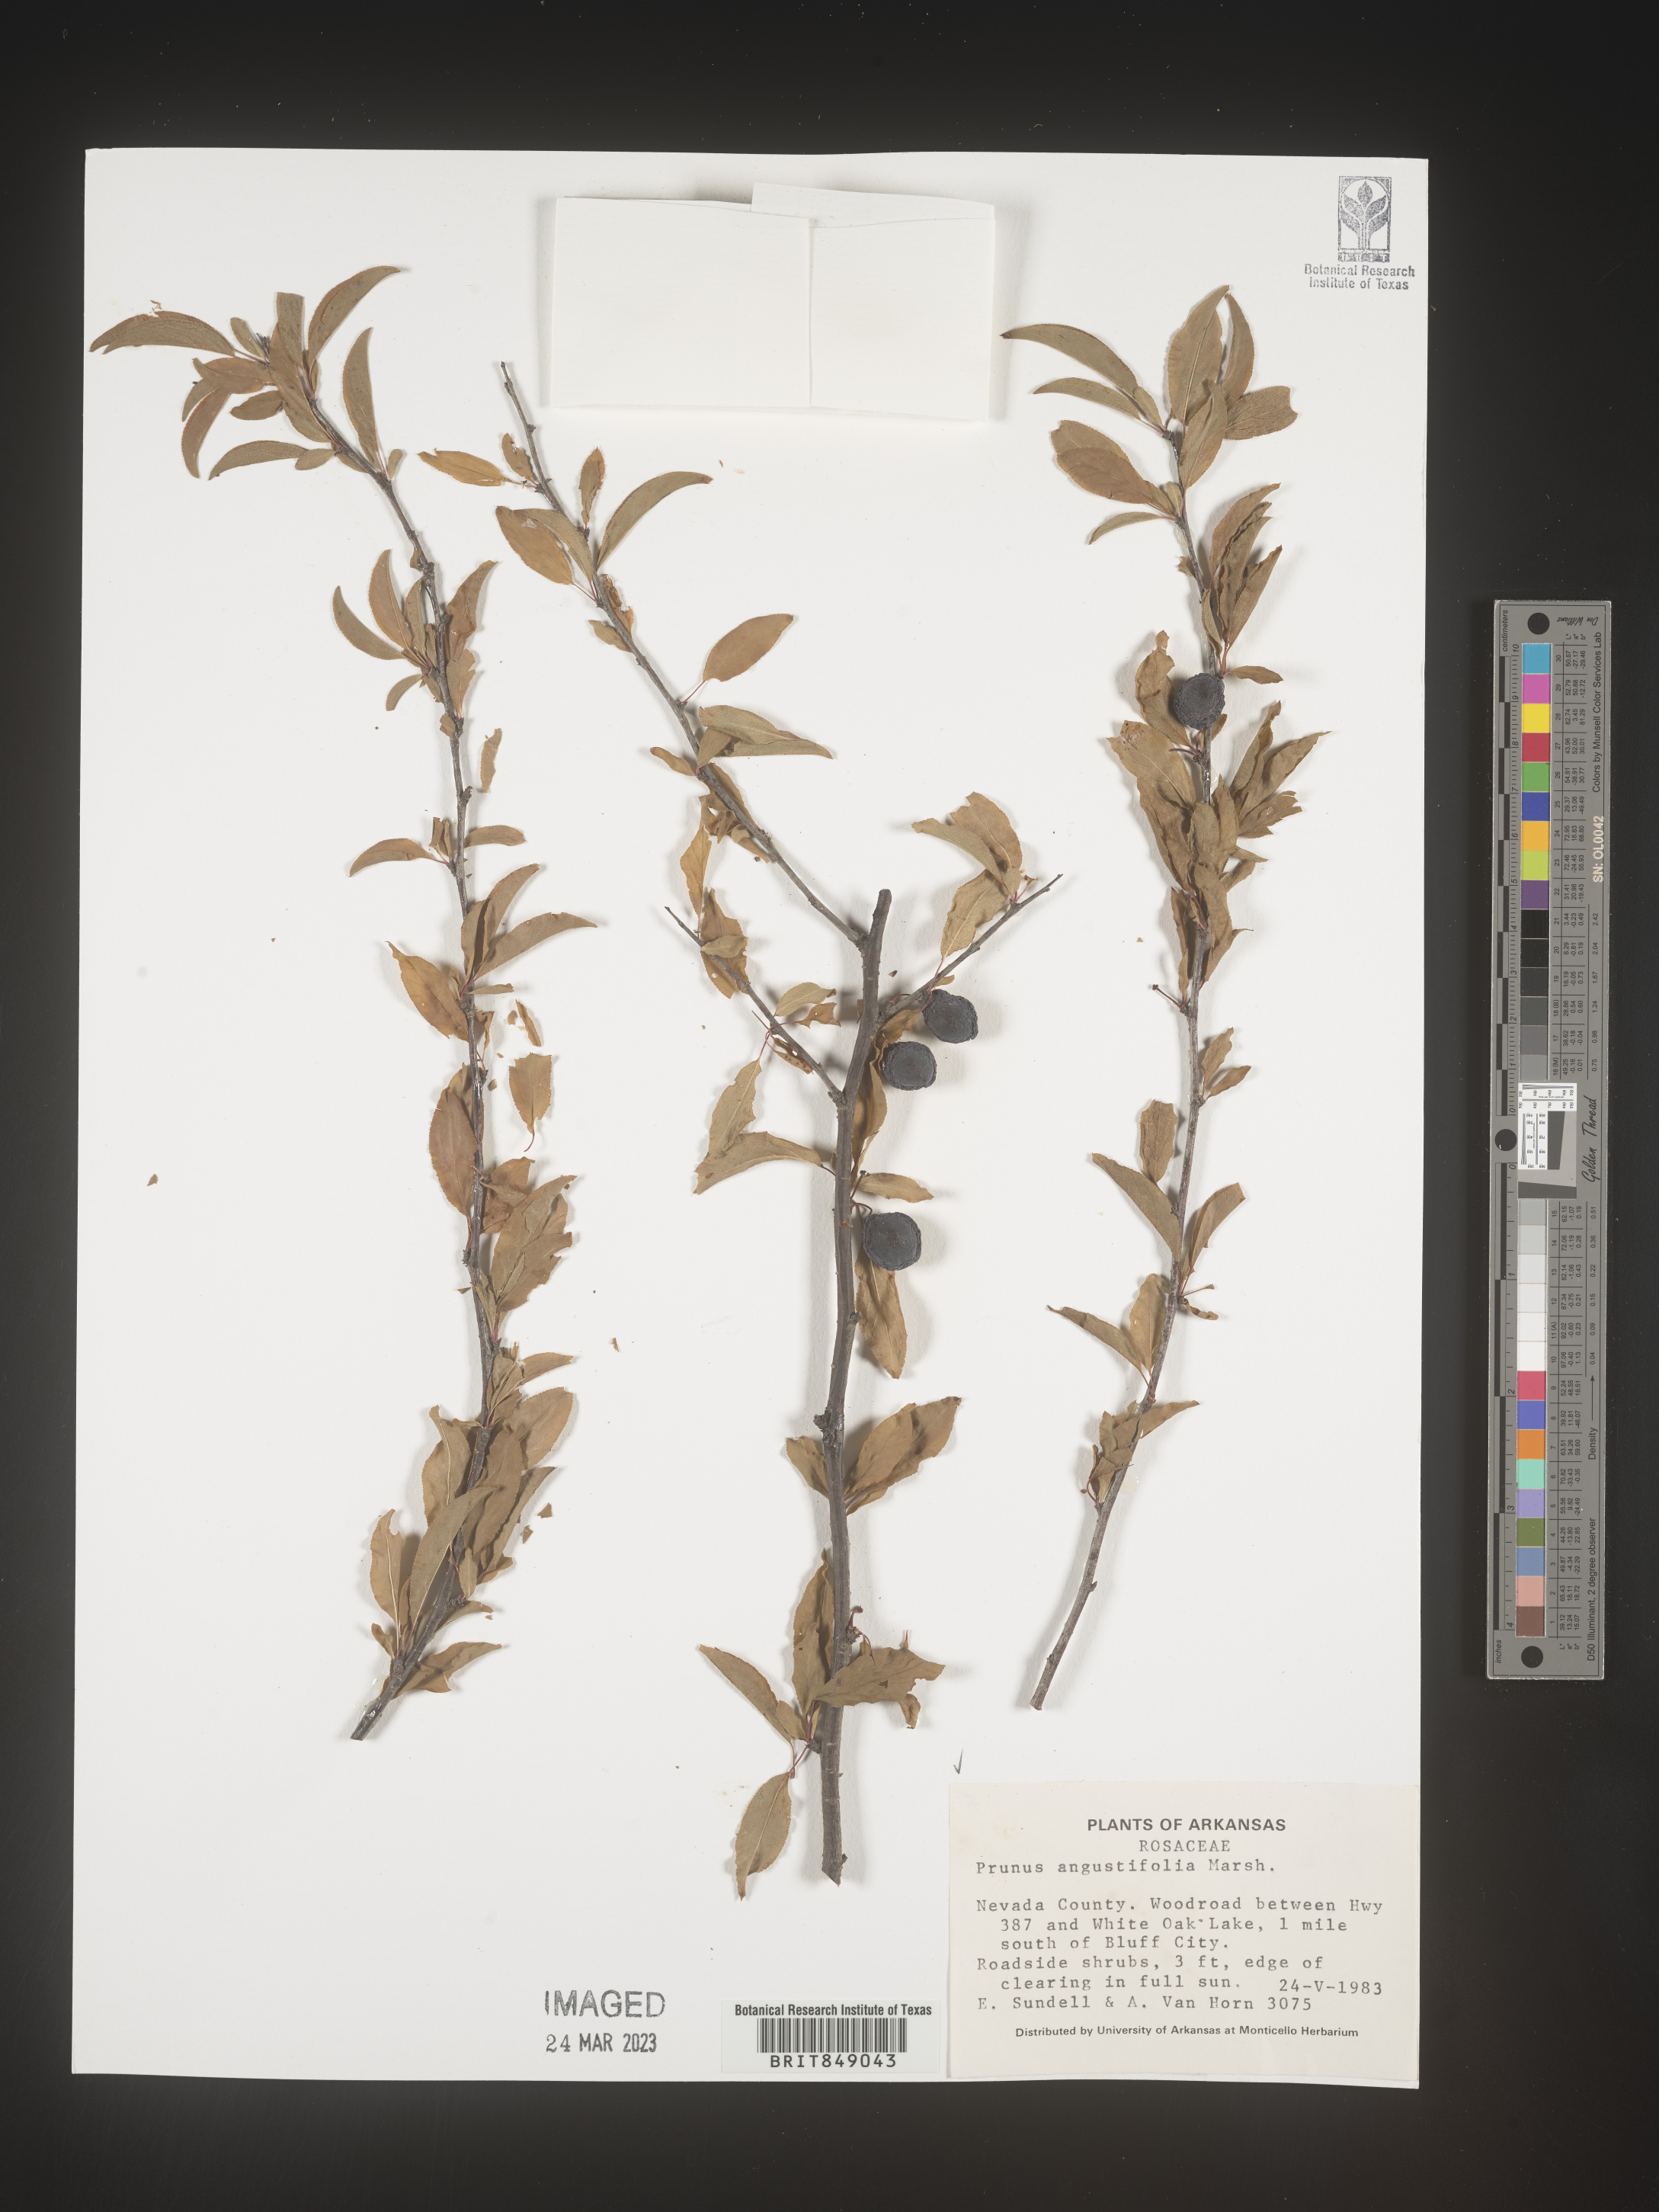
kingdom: Plantae
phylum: Tracheophyta
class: Magnoliopsida
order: Rosales
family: Rosaceae
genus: Prunus
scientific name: Prunus angustifolia
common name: Cherokee plum
